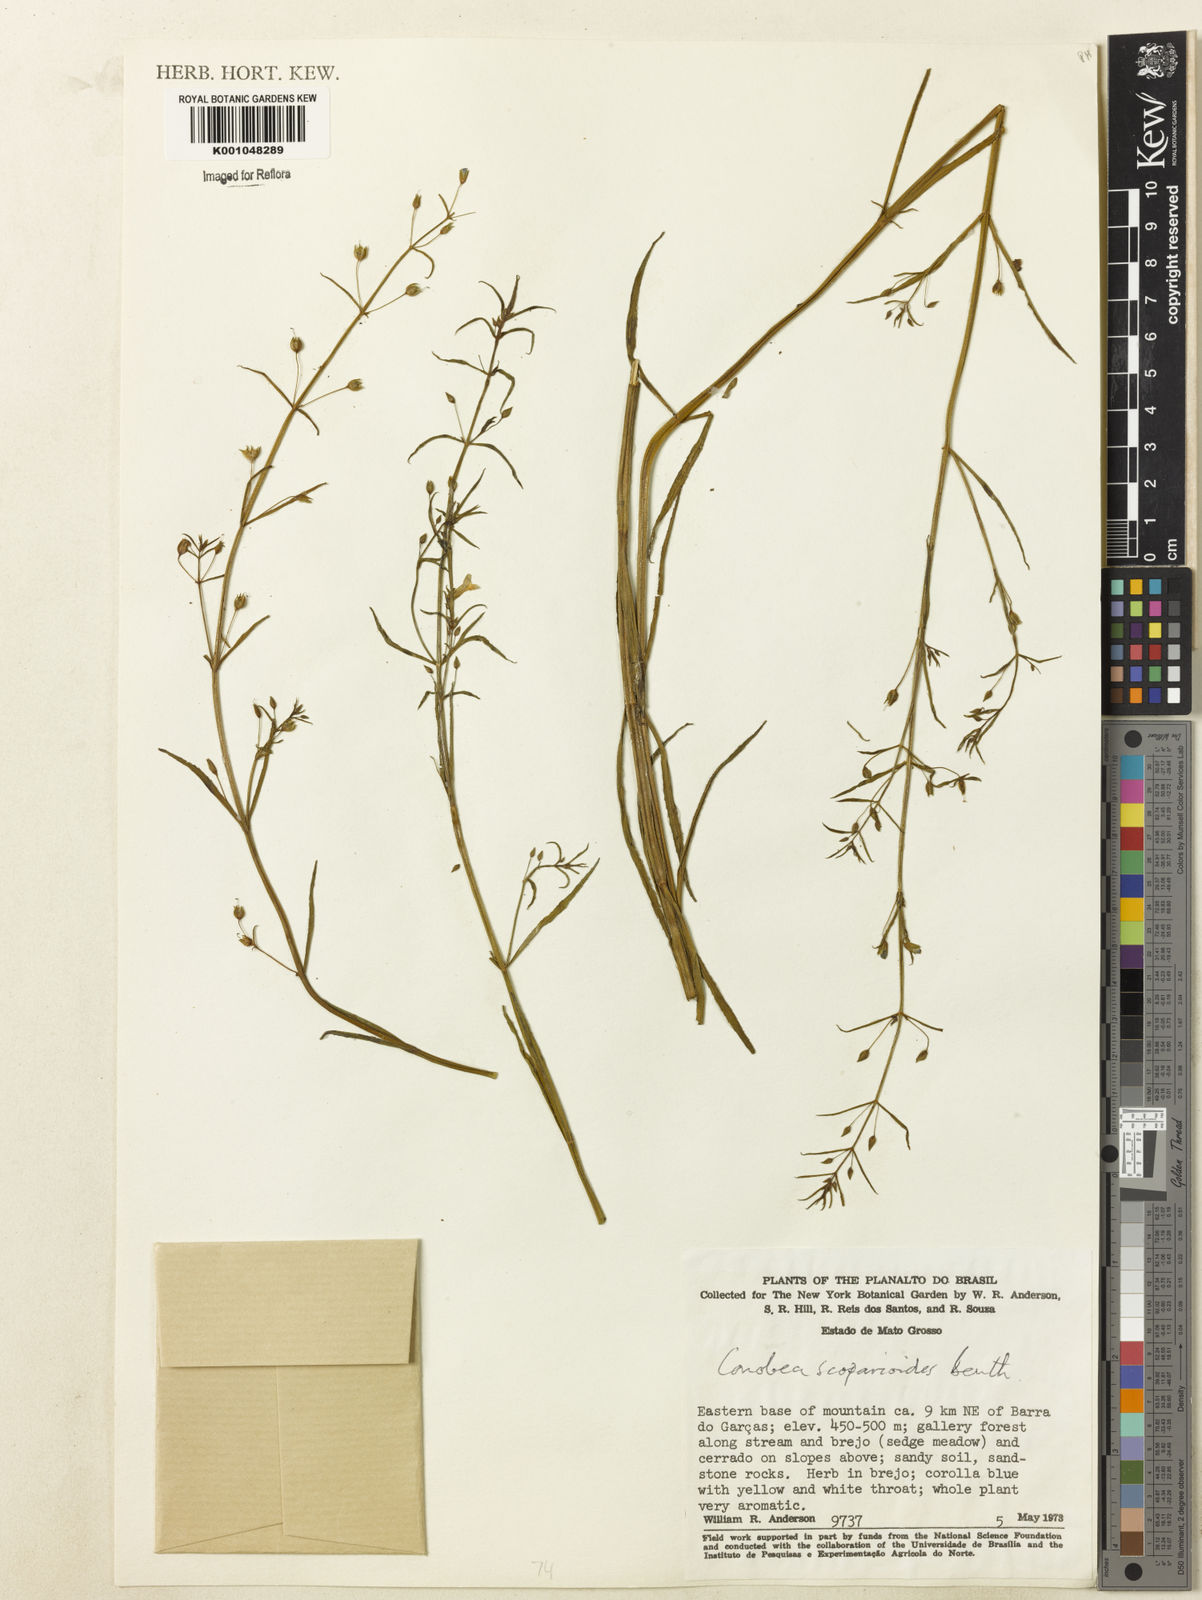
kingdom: Plantae
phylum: Tracheophyta
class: Magnoliopsida
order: Lamiales
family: Plantaginaceae
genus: Conobea
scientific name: Conobea scoparioides
